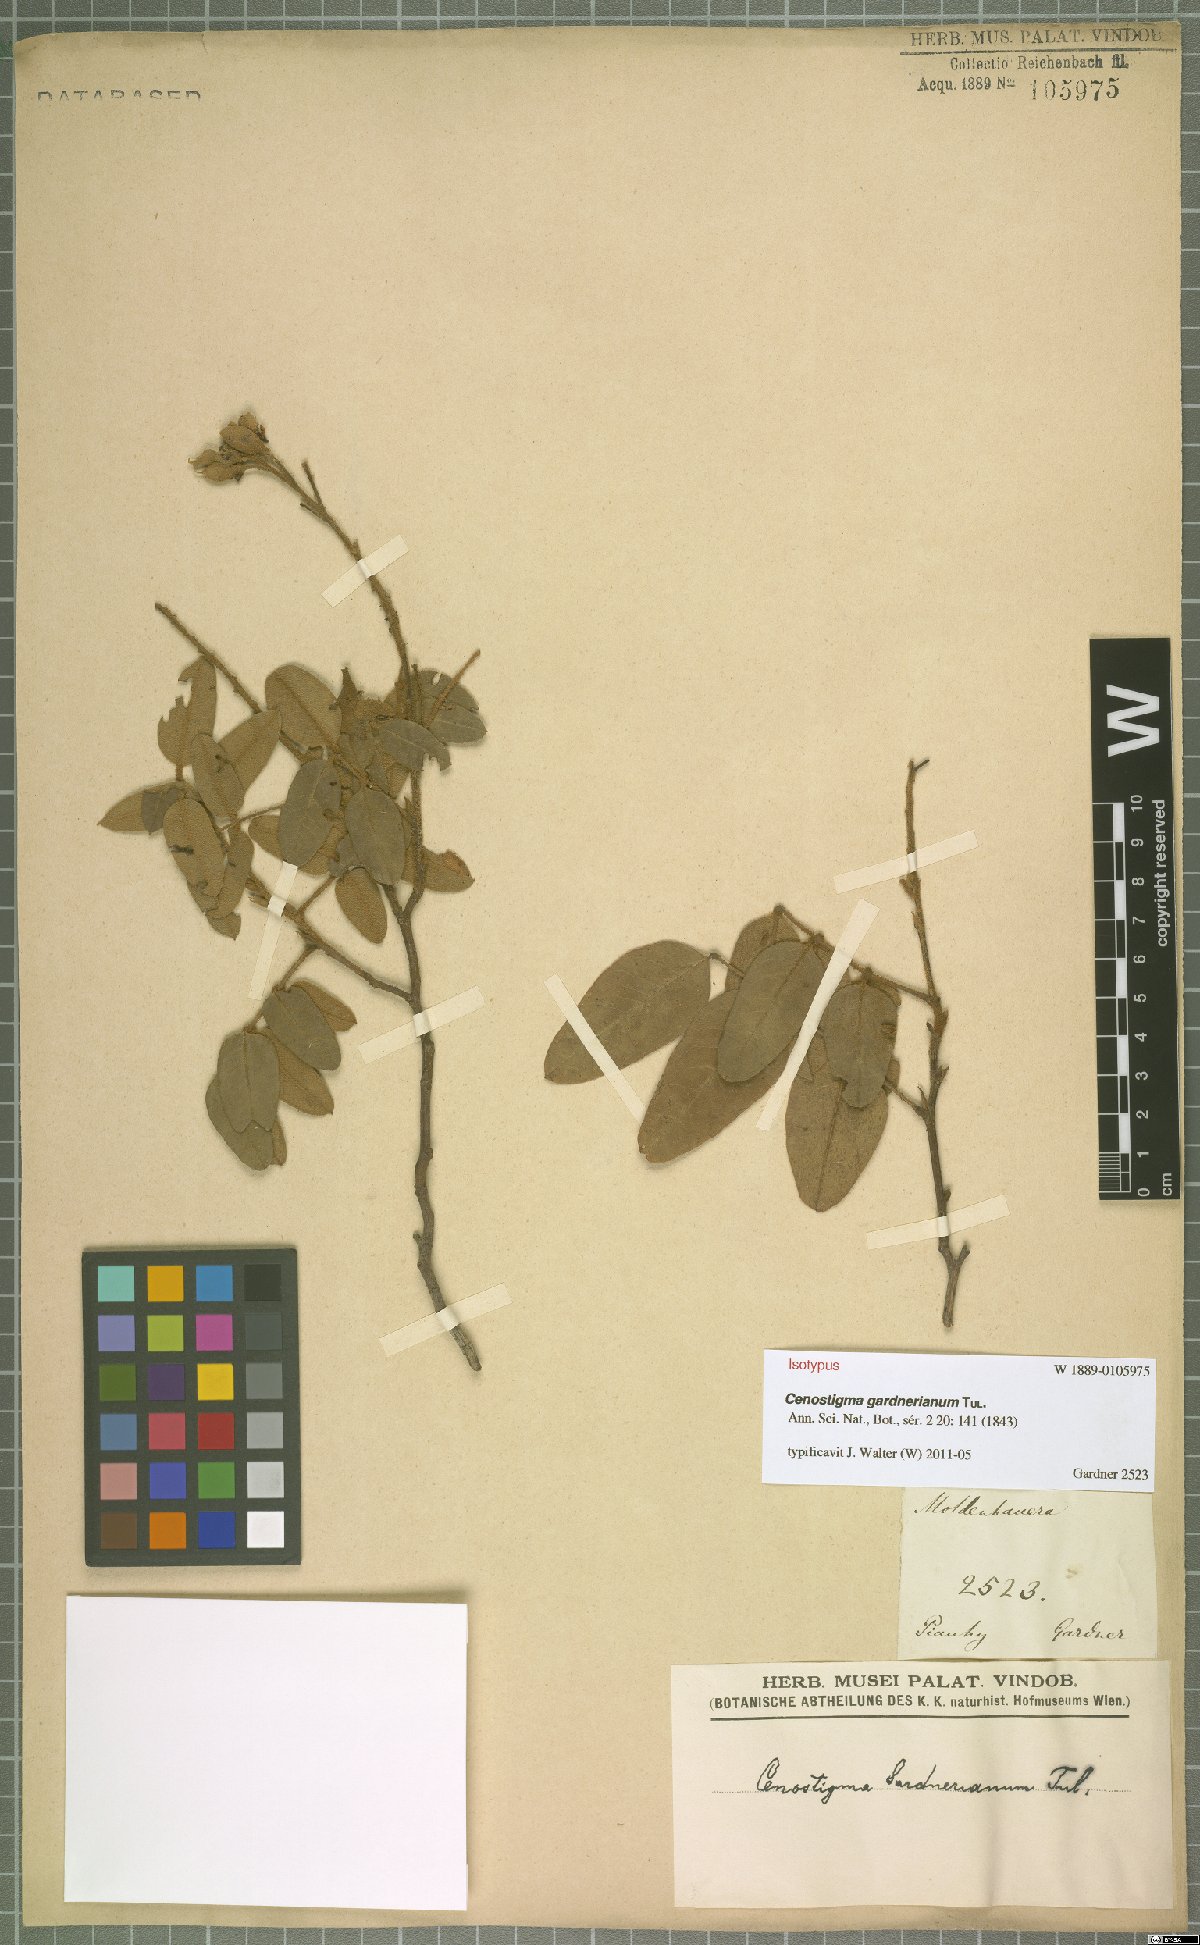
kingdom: Plantae
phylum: Tracheophyta
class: Magnoliopsida
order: Fabales
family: Fabaceae
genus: Cenostigma
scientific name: Cenostigma macrophyllum
